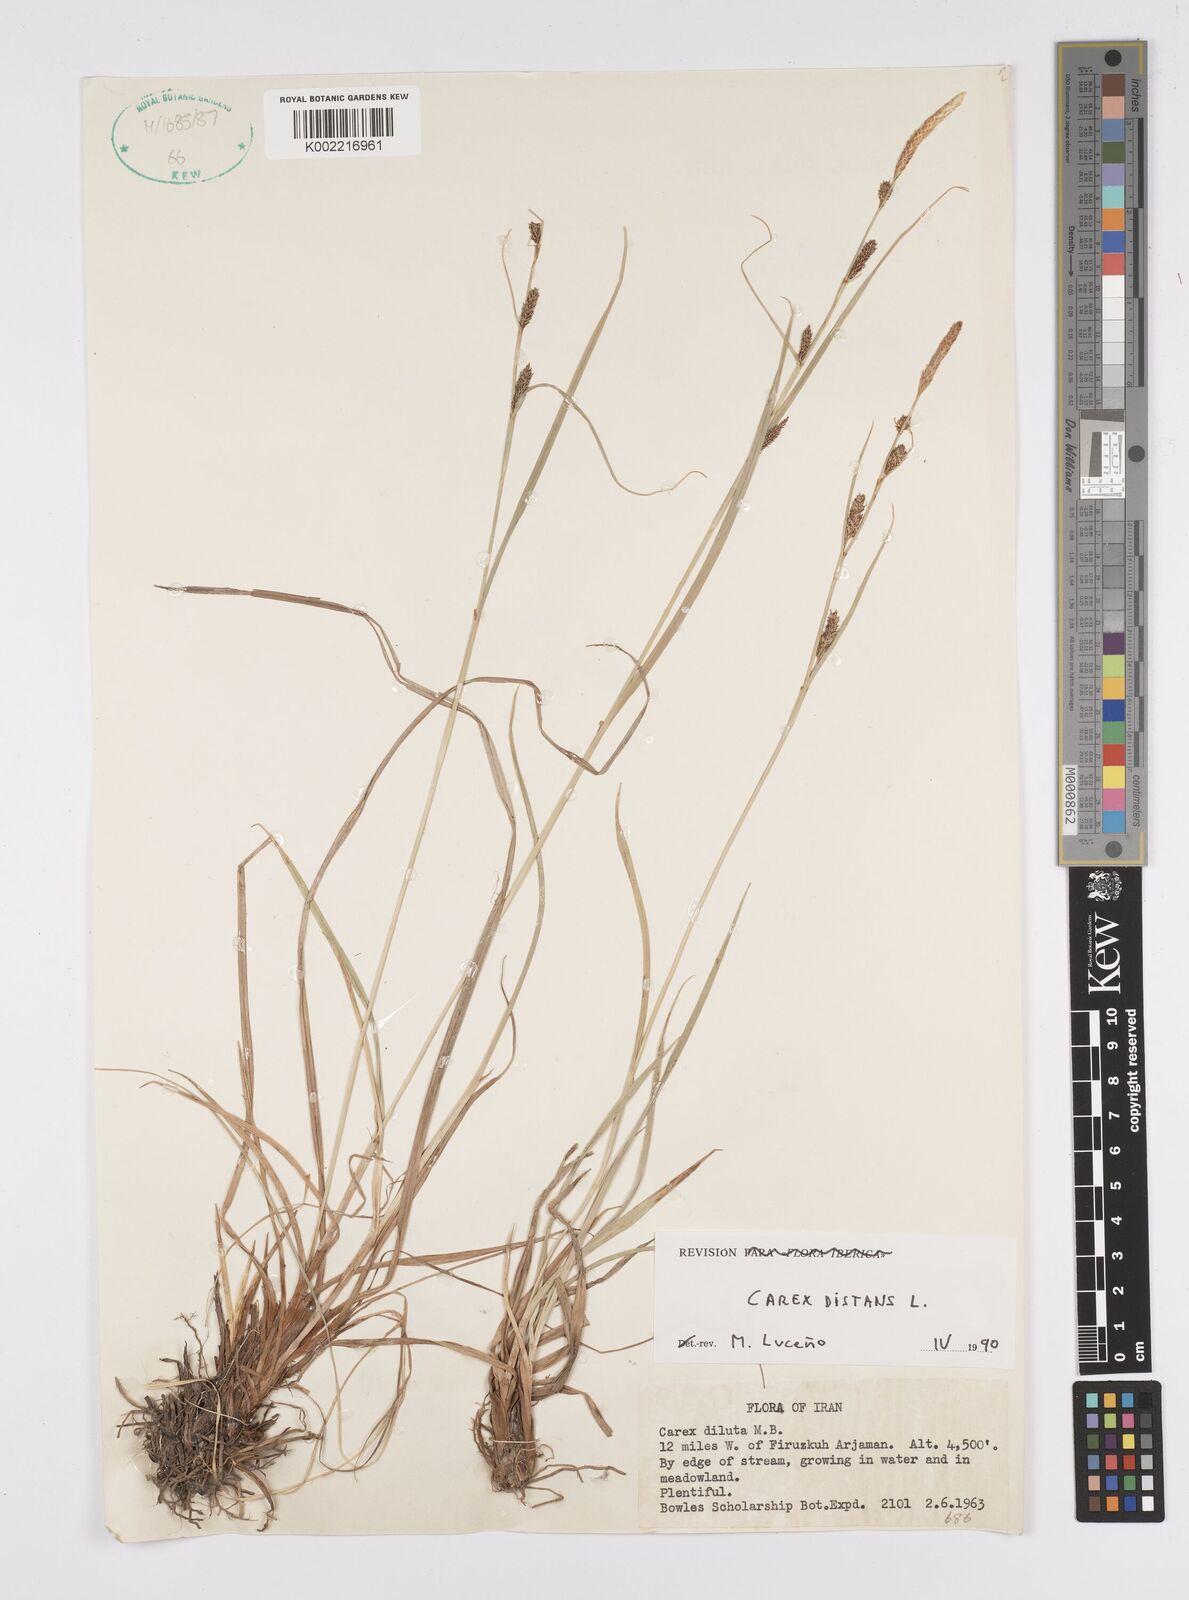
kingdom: Plantae
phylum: Tracheophyta
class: Liliopsida
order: Poales
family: Cyperaceae
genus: Carex
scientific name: Carex distans
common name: Distant sedge
